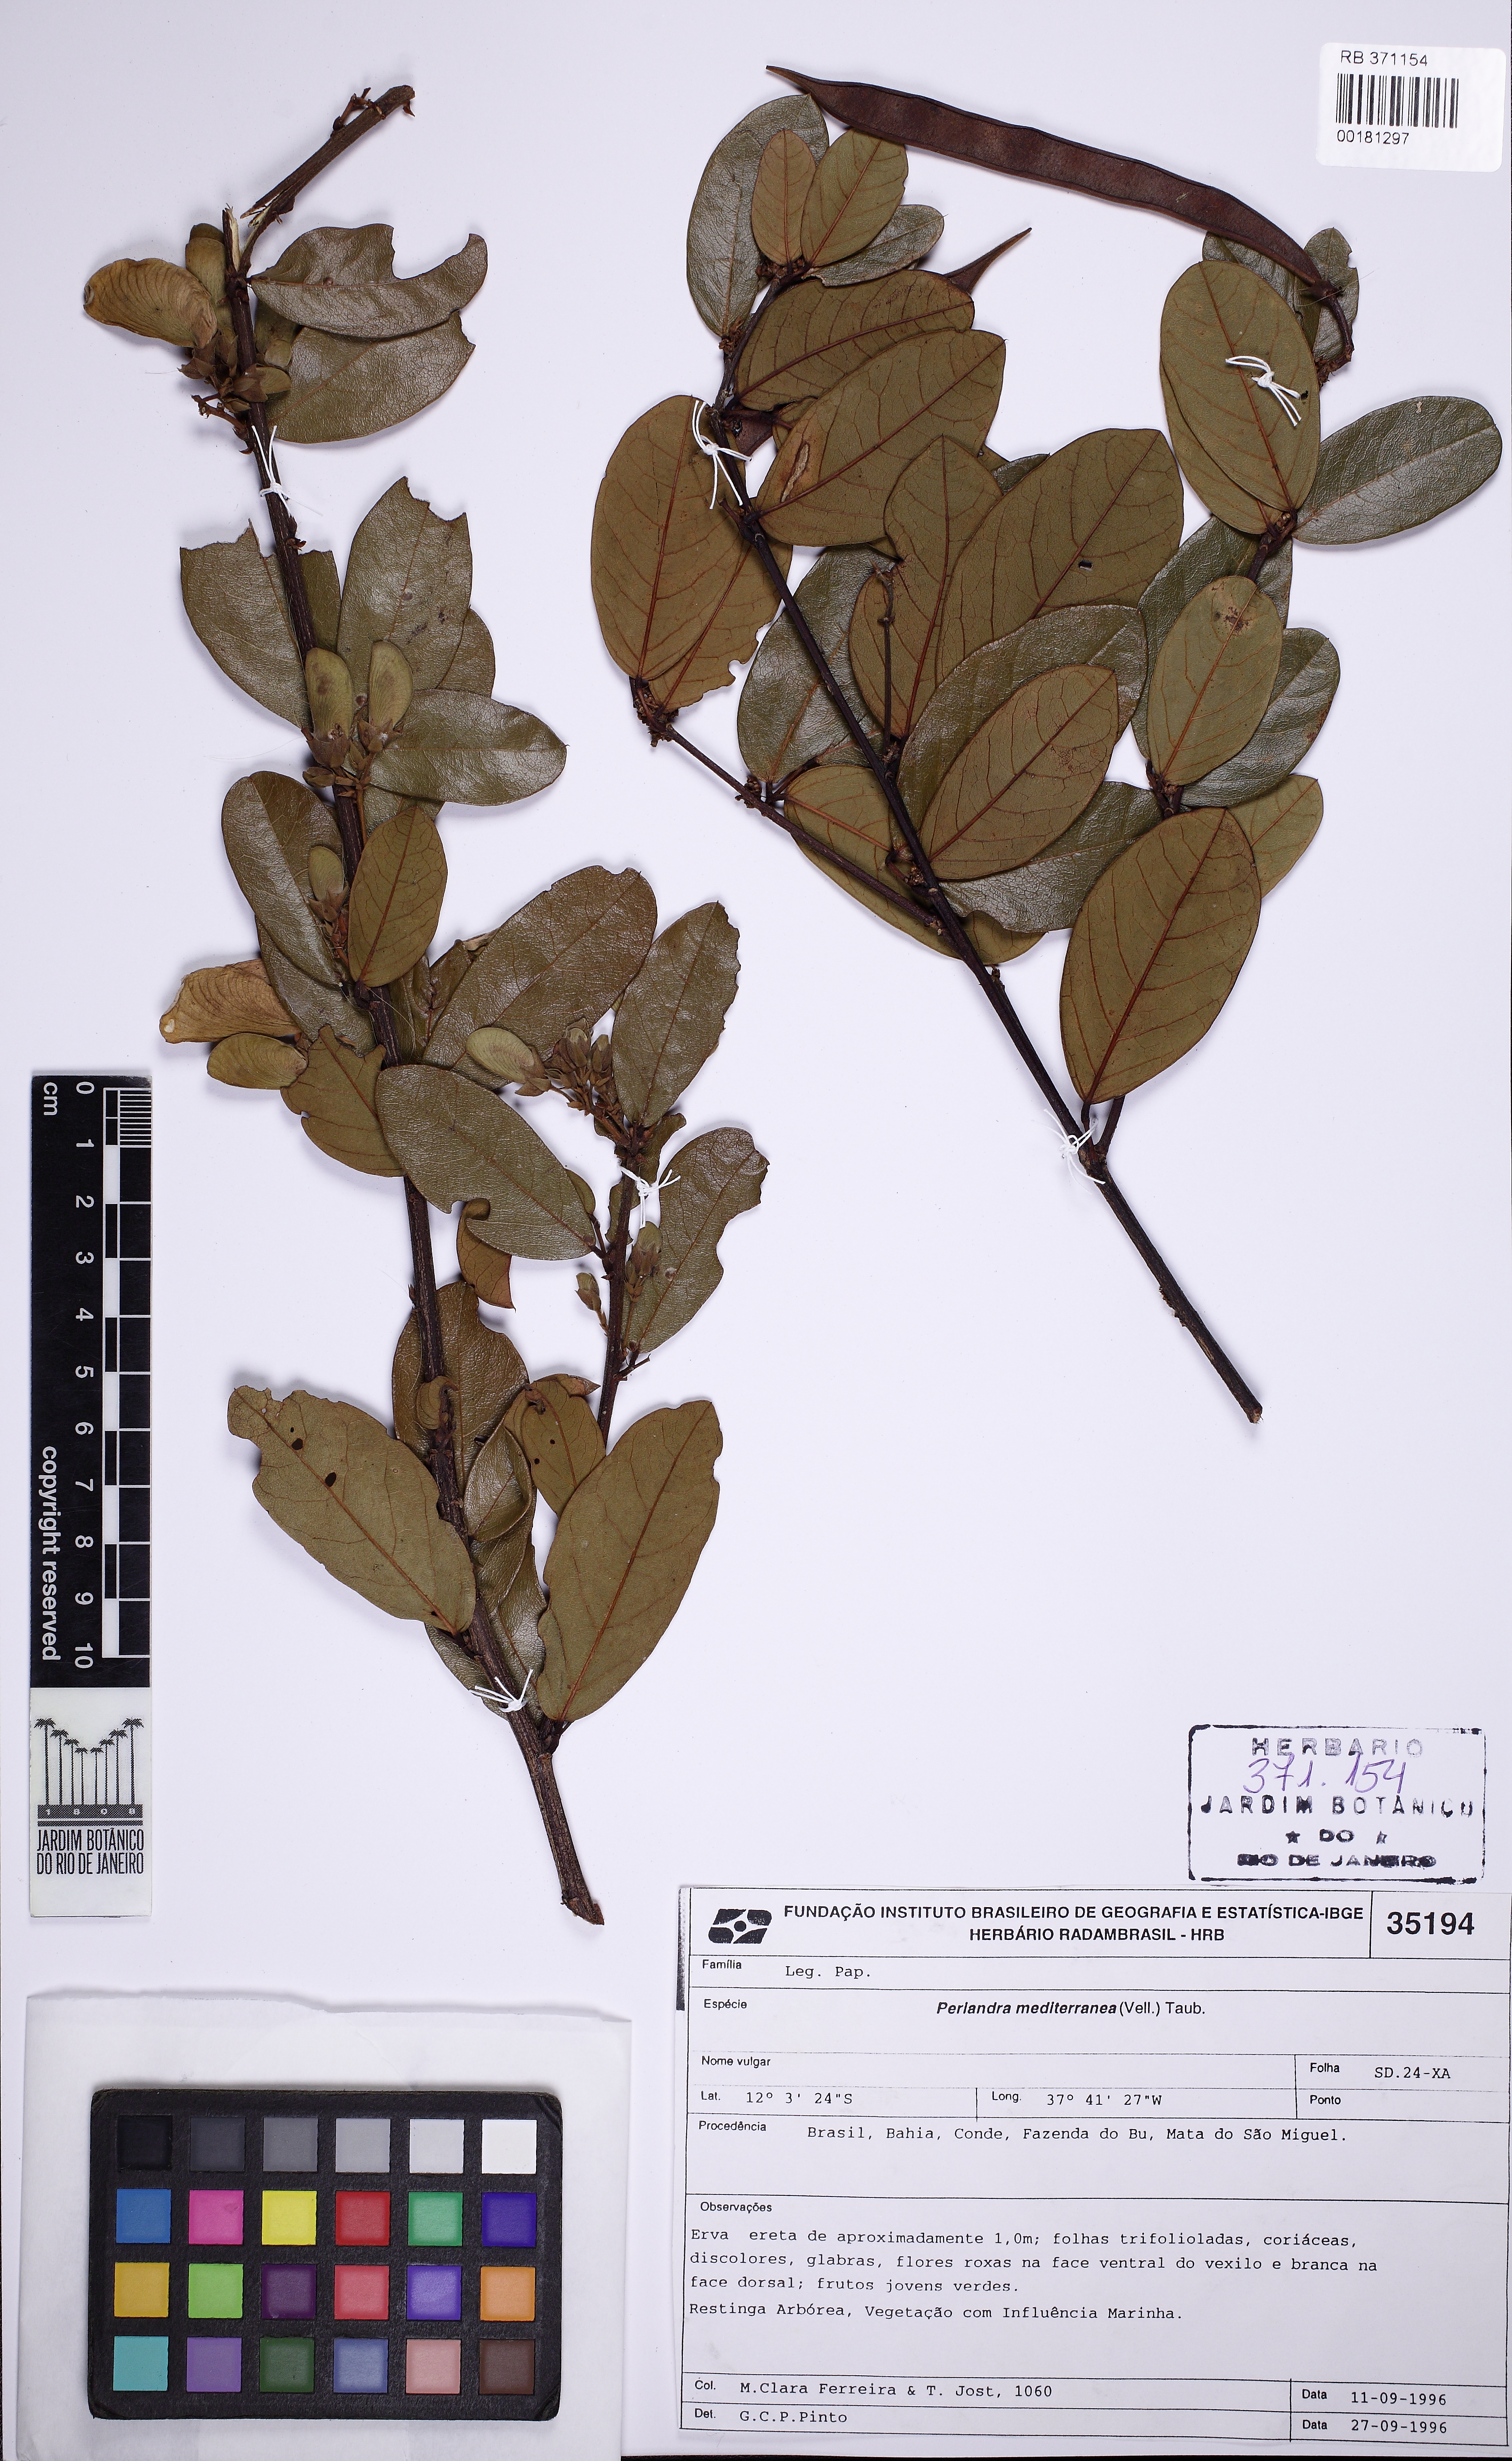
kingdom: Plantae
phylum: Tracheophyta
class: Magnoliopsida
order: Fabales
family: Fabaceae
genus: Periandra
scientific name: Periandra mediterranea
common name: Brazilian licorice
